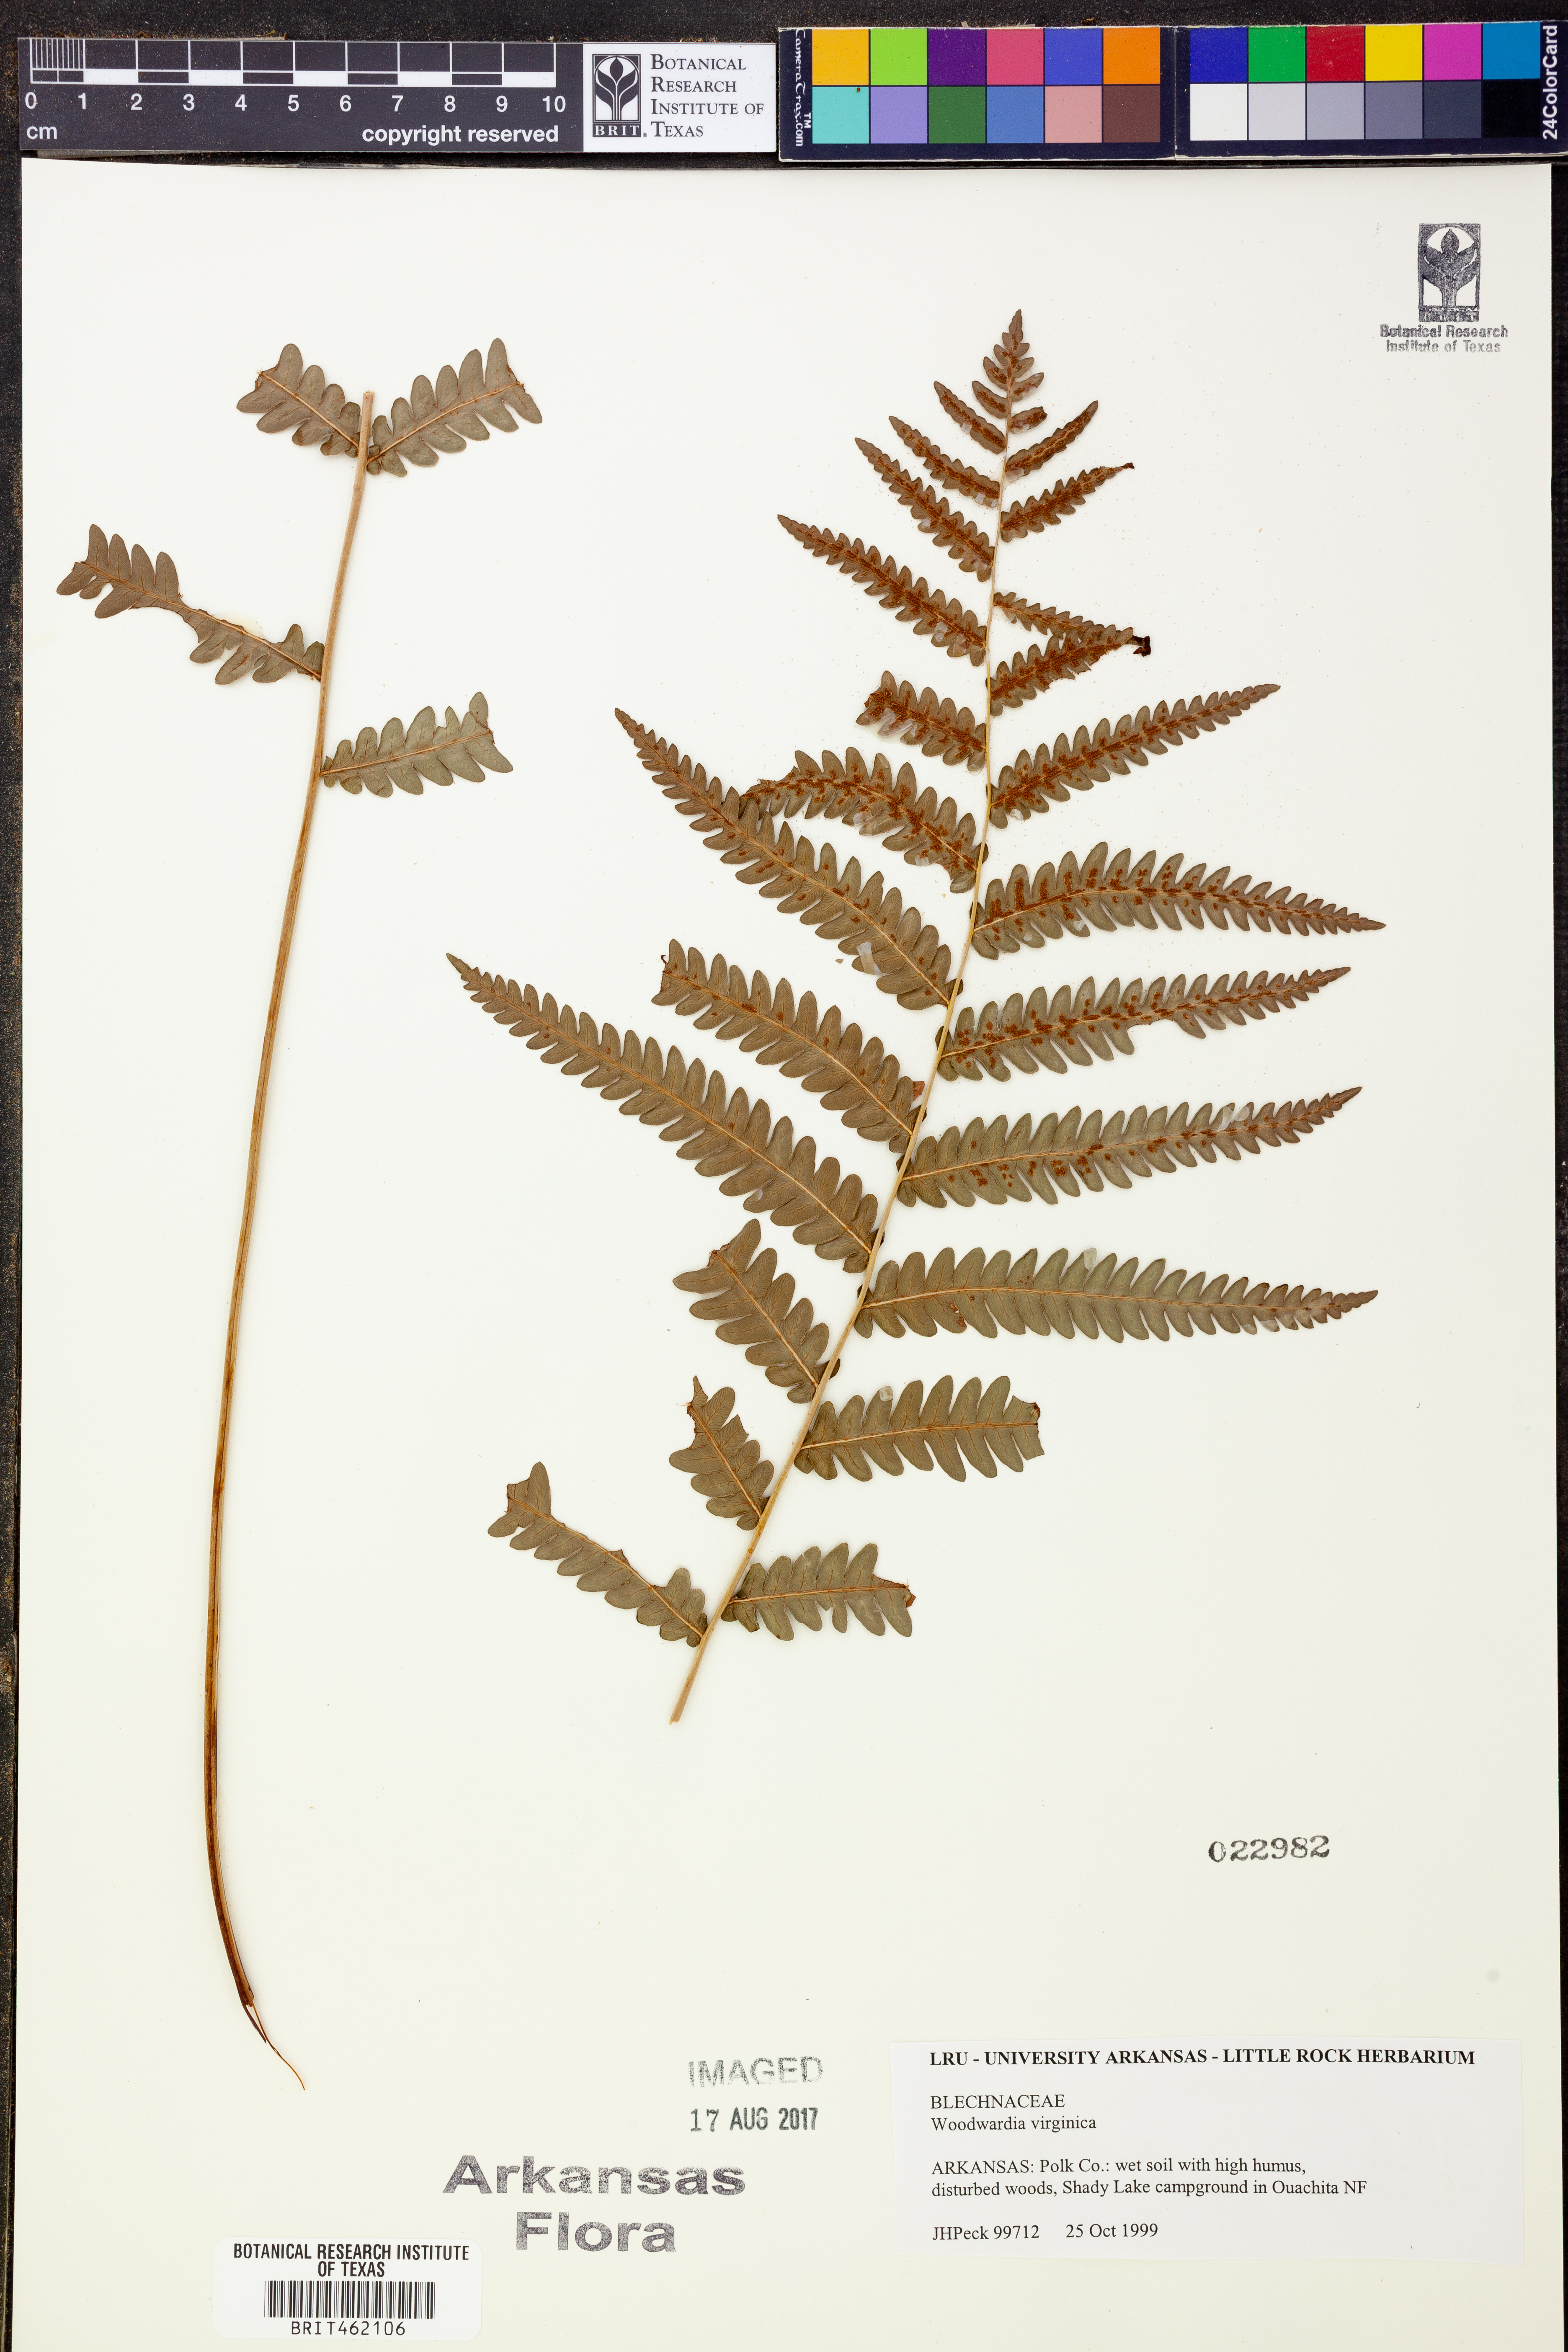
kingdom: Plantae
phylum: Tracheophyta
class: Polypodiopsida
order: Polypodiales
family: Blechnaceae
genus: Anchistea
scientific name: Anchistea virginica
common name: Virginia chain fern
